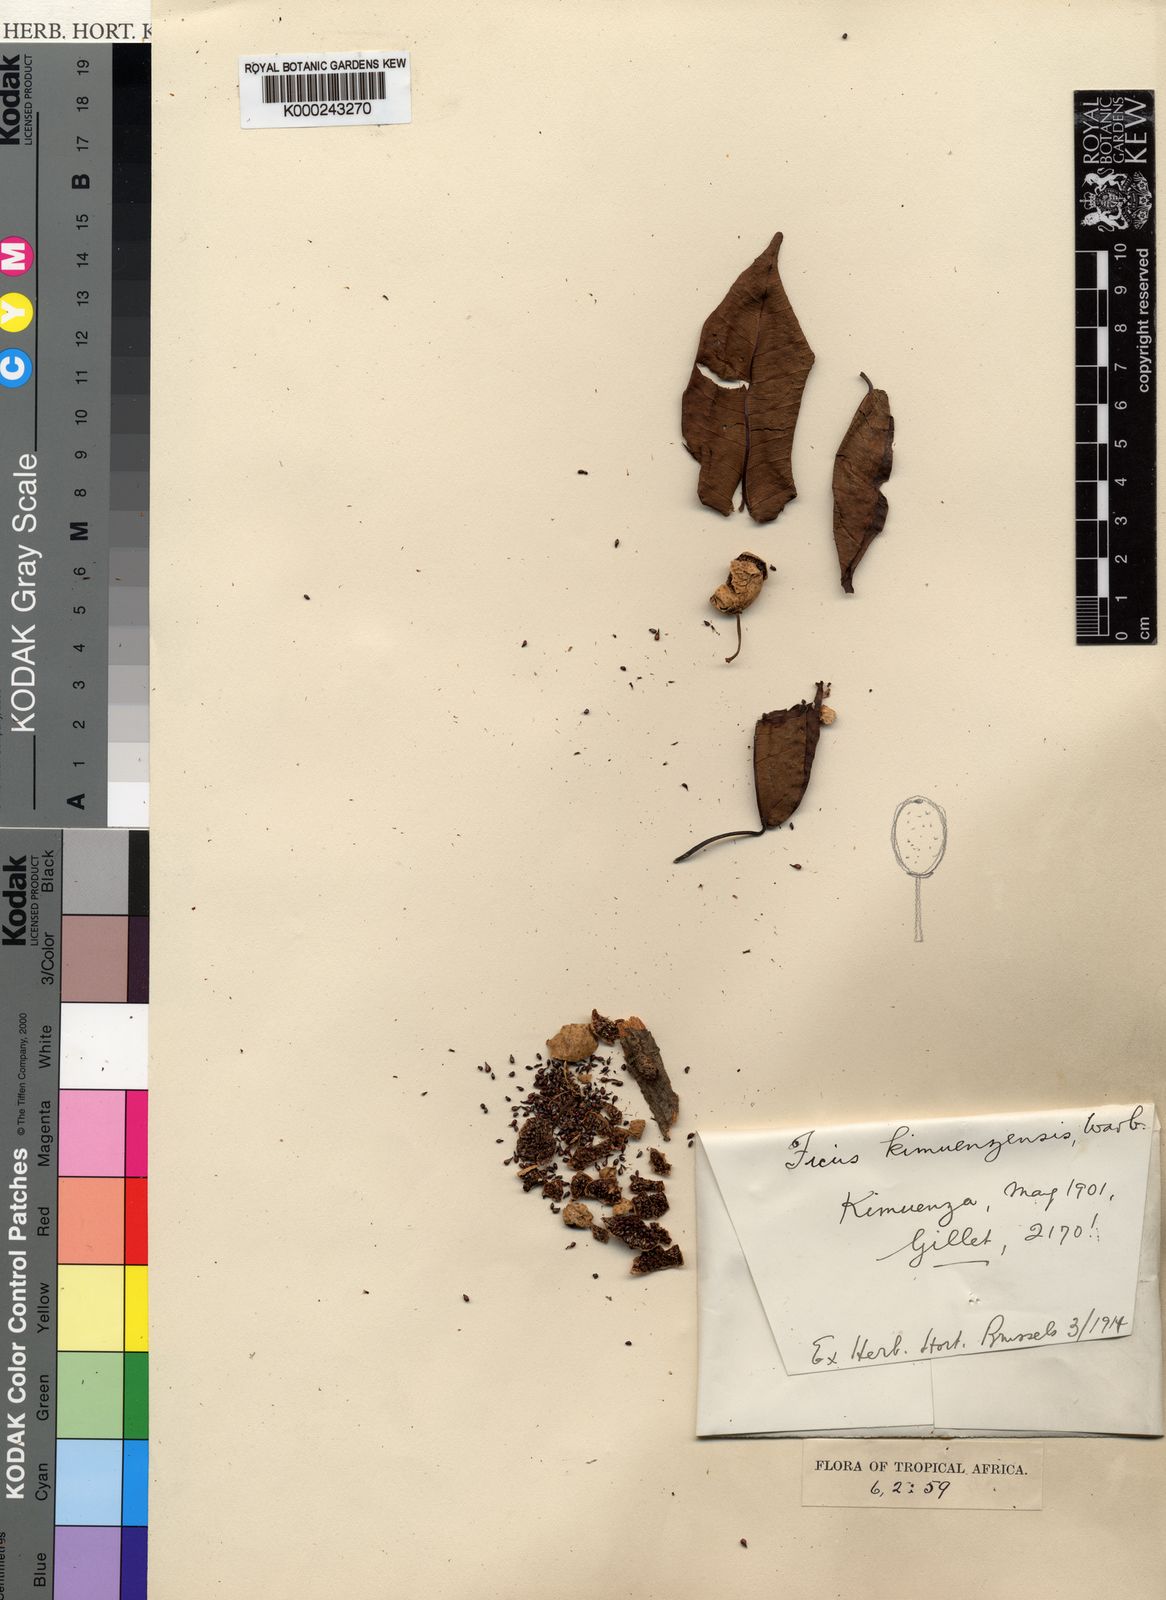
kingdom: Plantae
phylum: Tracheophyta
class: Magnoliopsida
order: Rosales
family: Moraceae
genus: Ficus
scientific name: Ficus tremula
